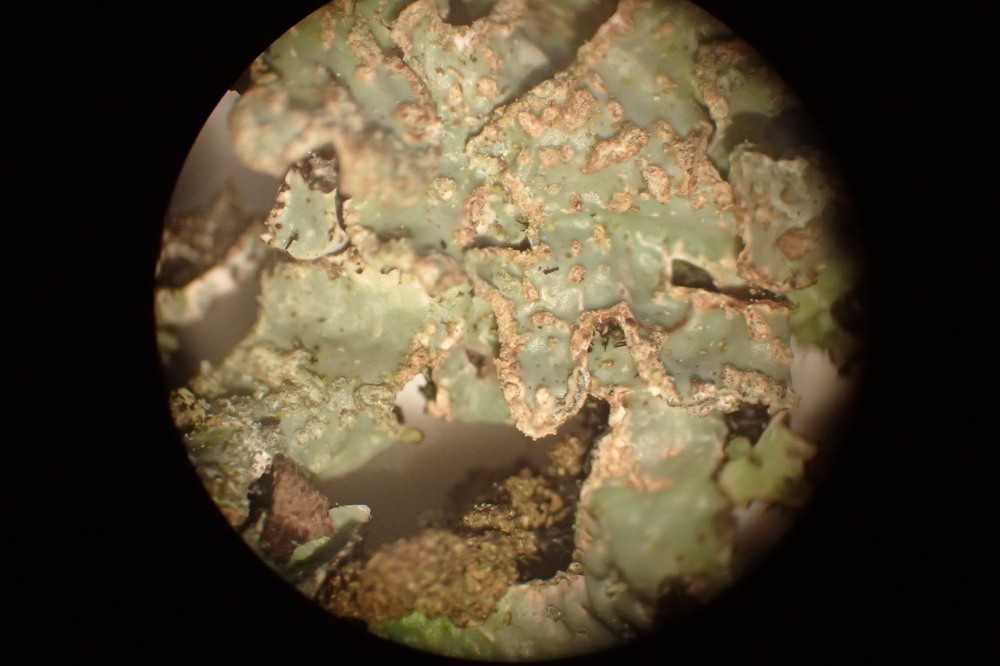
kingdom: Fungi
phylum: Ascomycota
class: Lecanoromycetes
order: Lecanorales
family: Parmeliaceae
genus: Parmelia
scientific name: Parmelia sulcata
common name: rynket skållav
